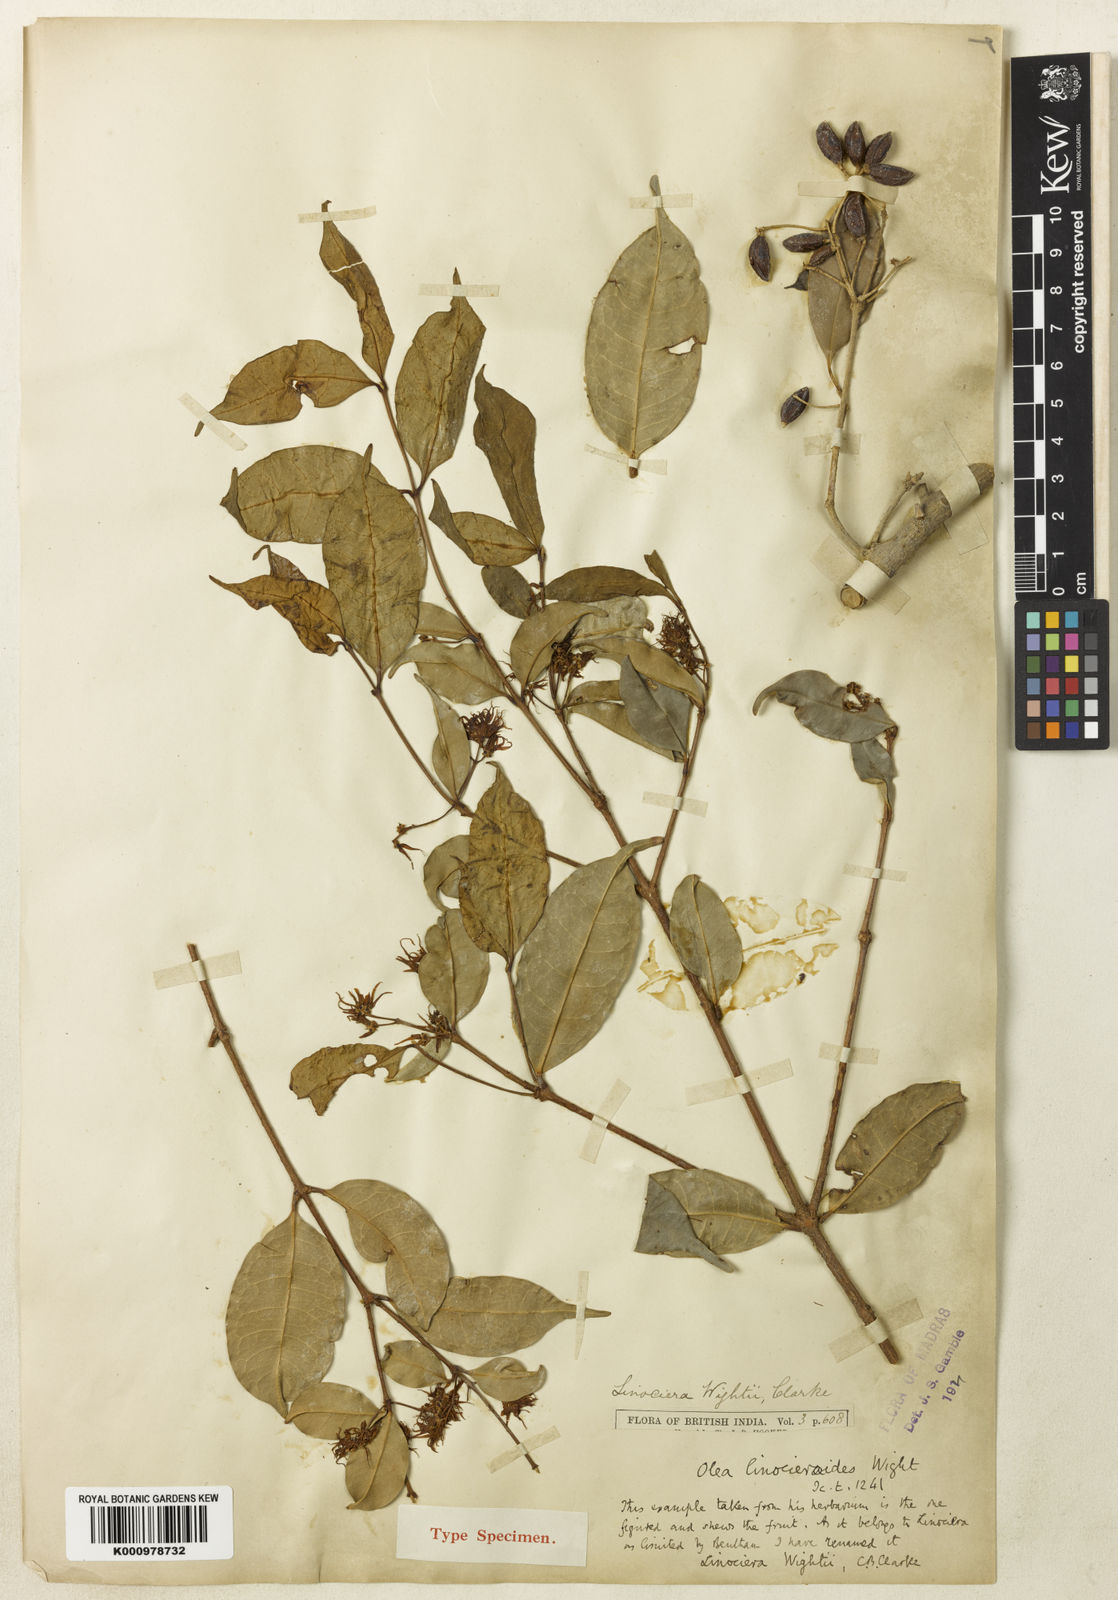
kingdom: Plantae
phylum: Tracheophyta
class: Magnoliopsida
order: Lamiales
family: Oleaceae
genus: Chionanthus
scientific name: Chionanthus mala-elengi
